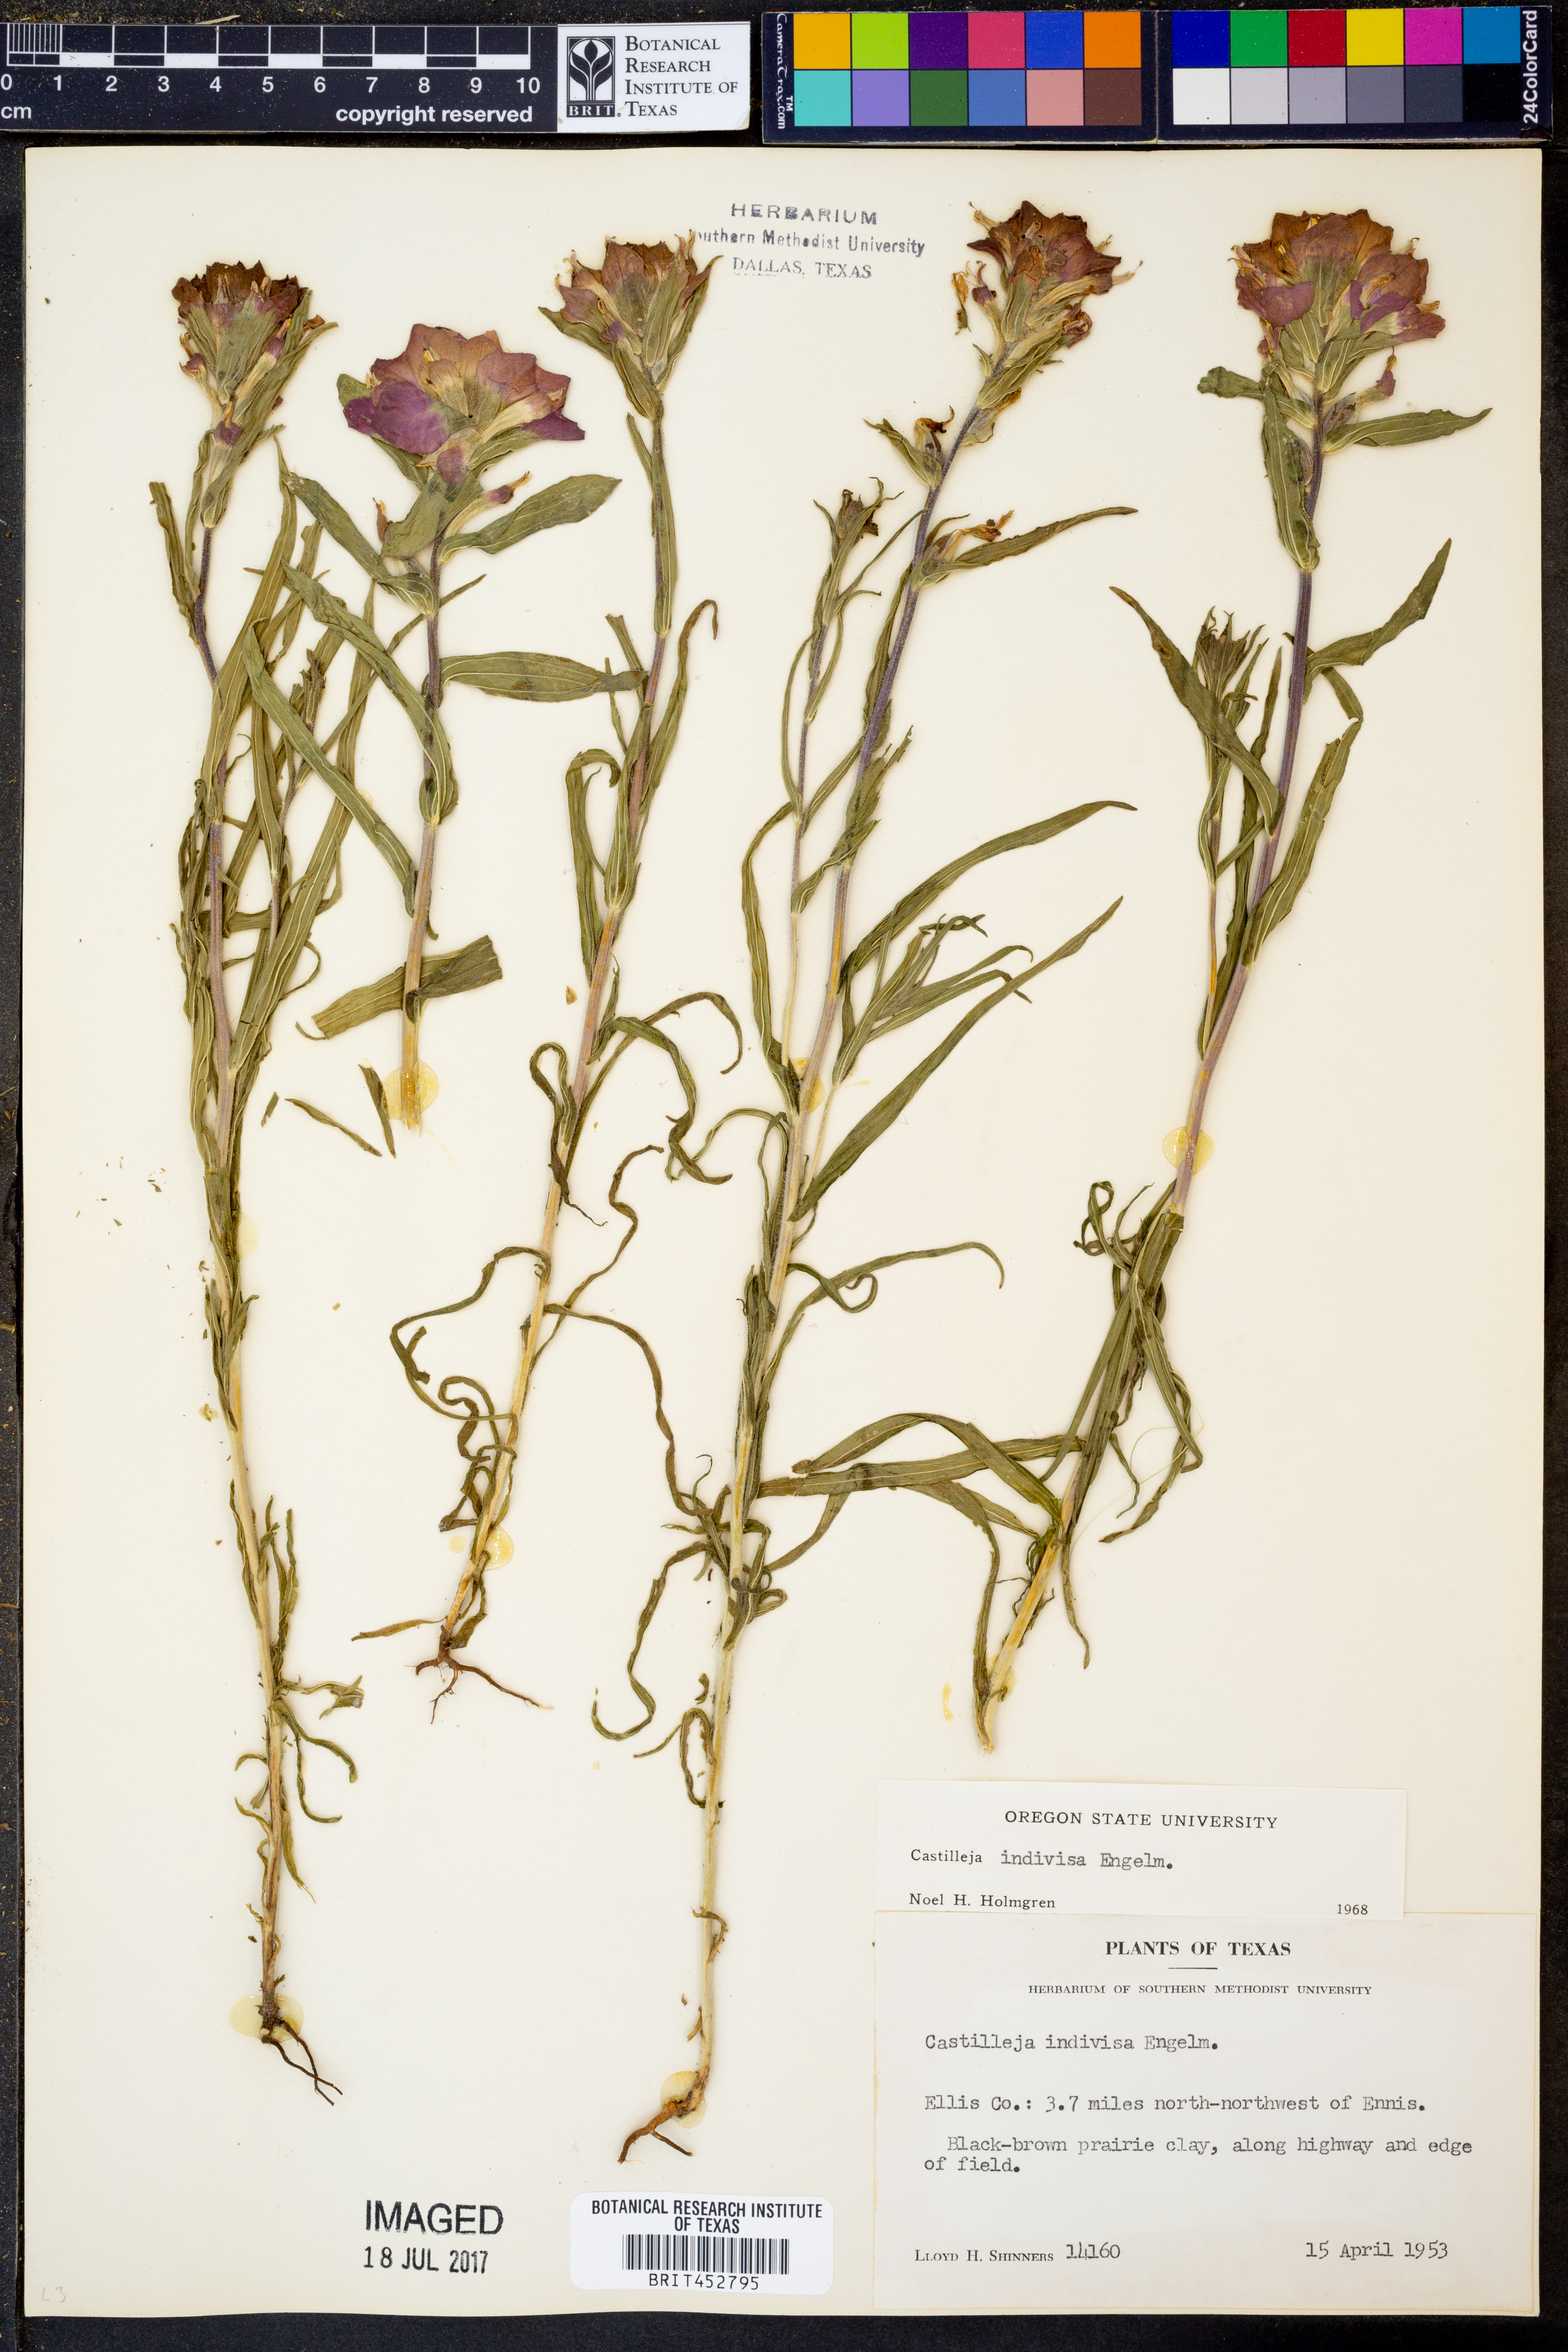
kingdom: Plantae
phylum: Tracheophyta
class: Magnoliopsida
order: Lamiales
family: Orobanchaceae
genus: Castilleja
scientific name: Castilleja indivisa
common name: Texas paintbrush
